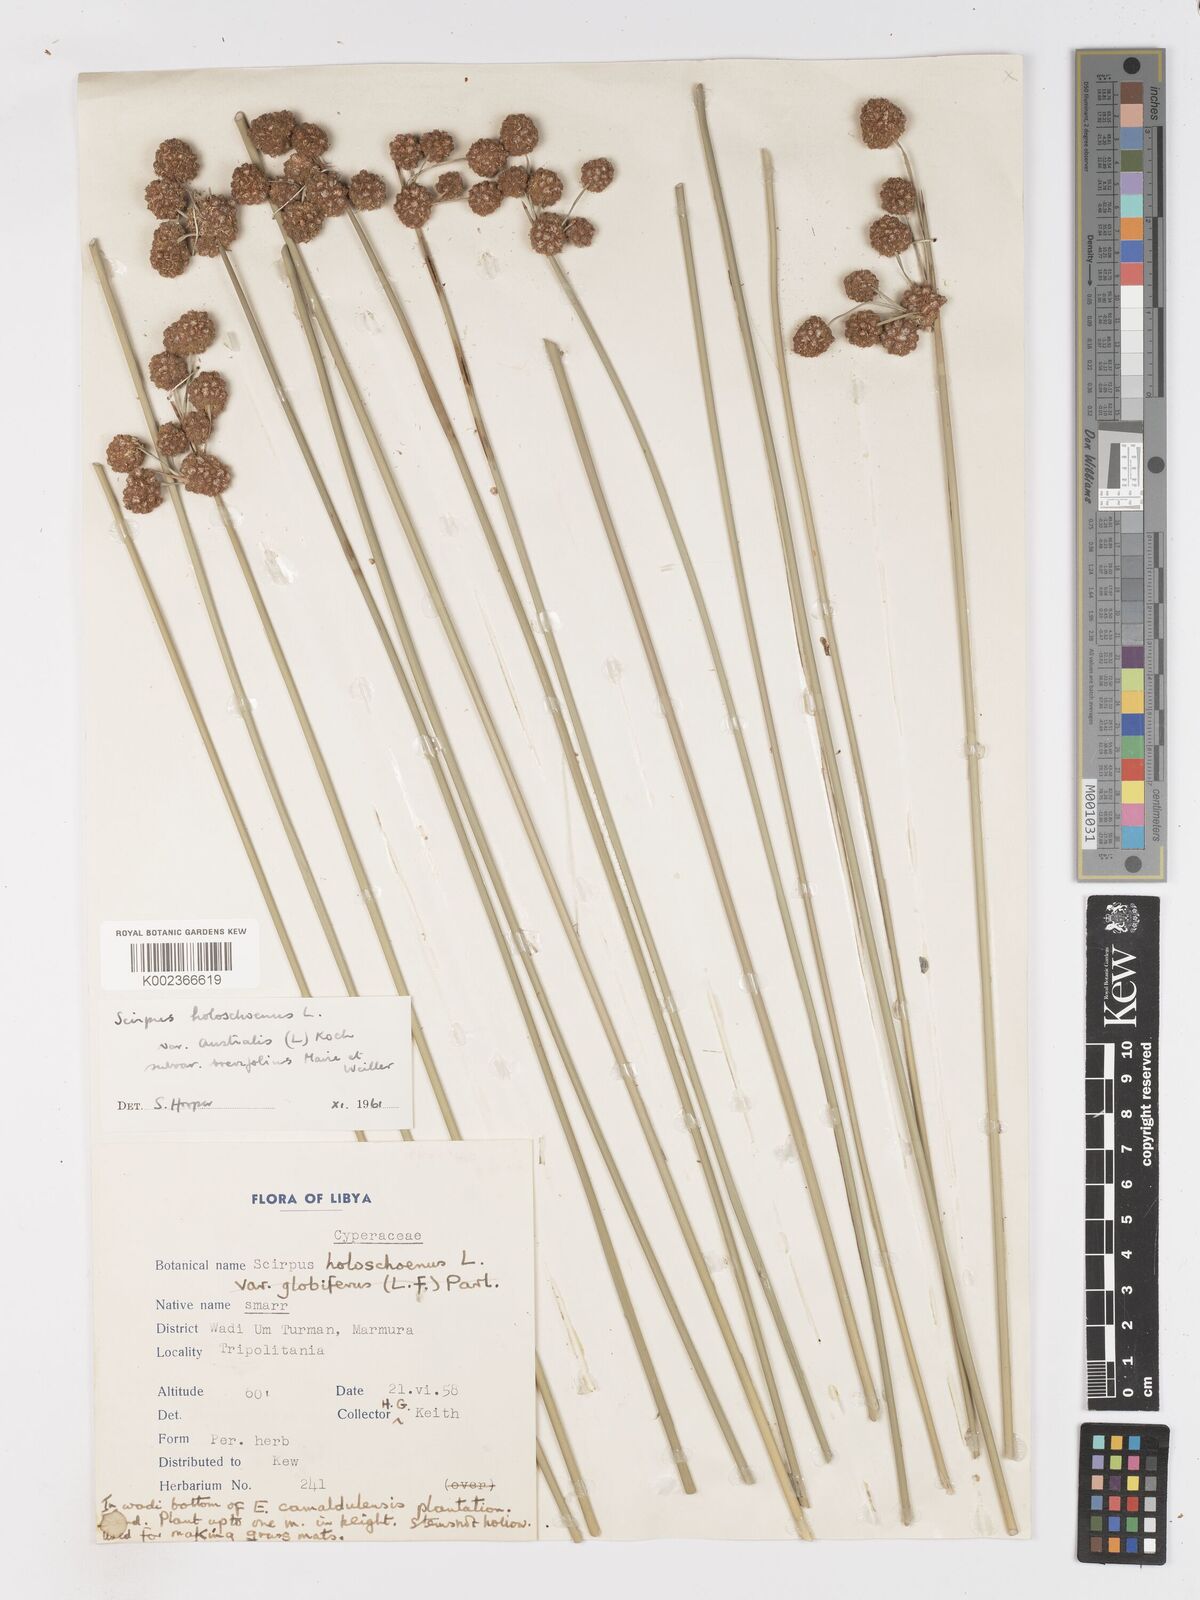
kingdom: Plantae
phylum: Tracheophyta
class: Liliopsida
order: Poales
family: Cyperaceae
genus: Scirpoides
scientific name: Scirpoides holoschoenus
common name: Round-headed club-rush
